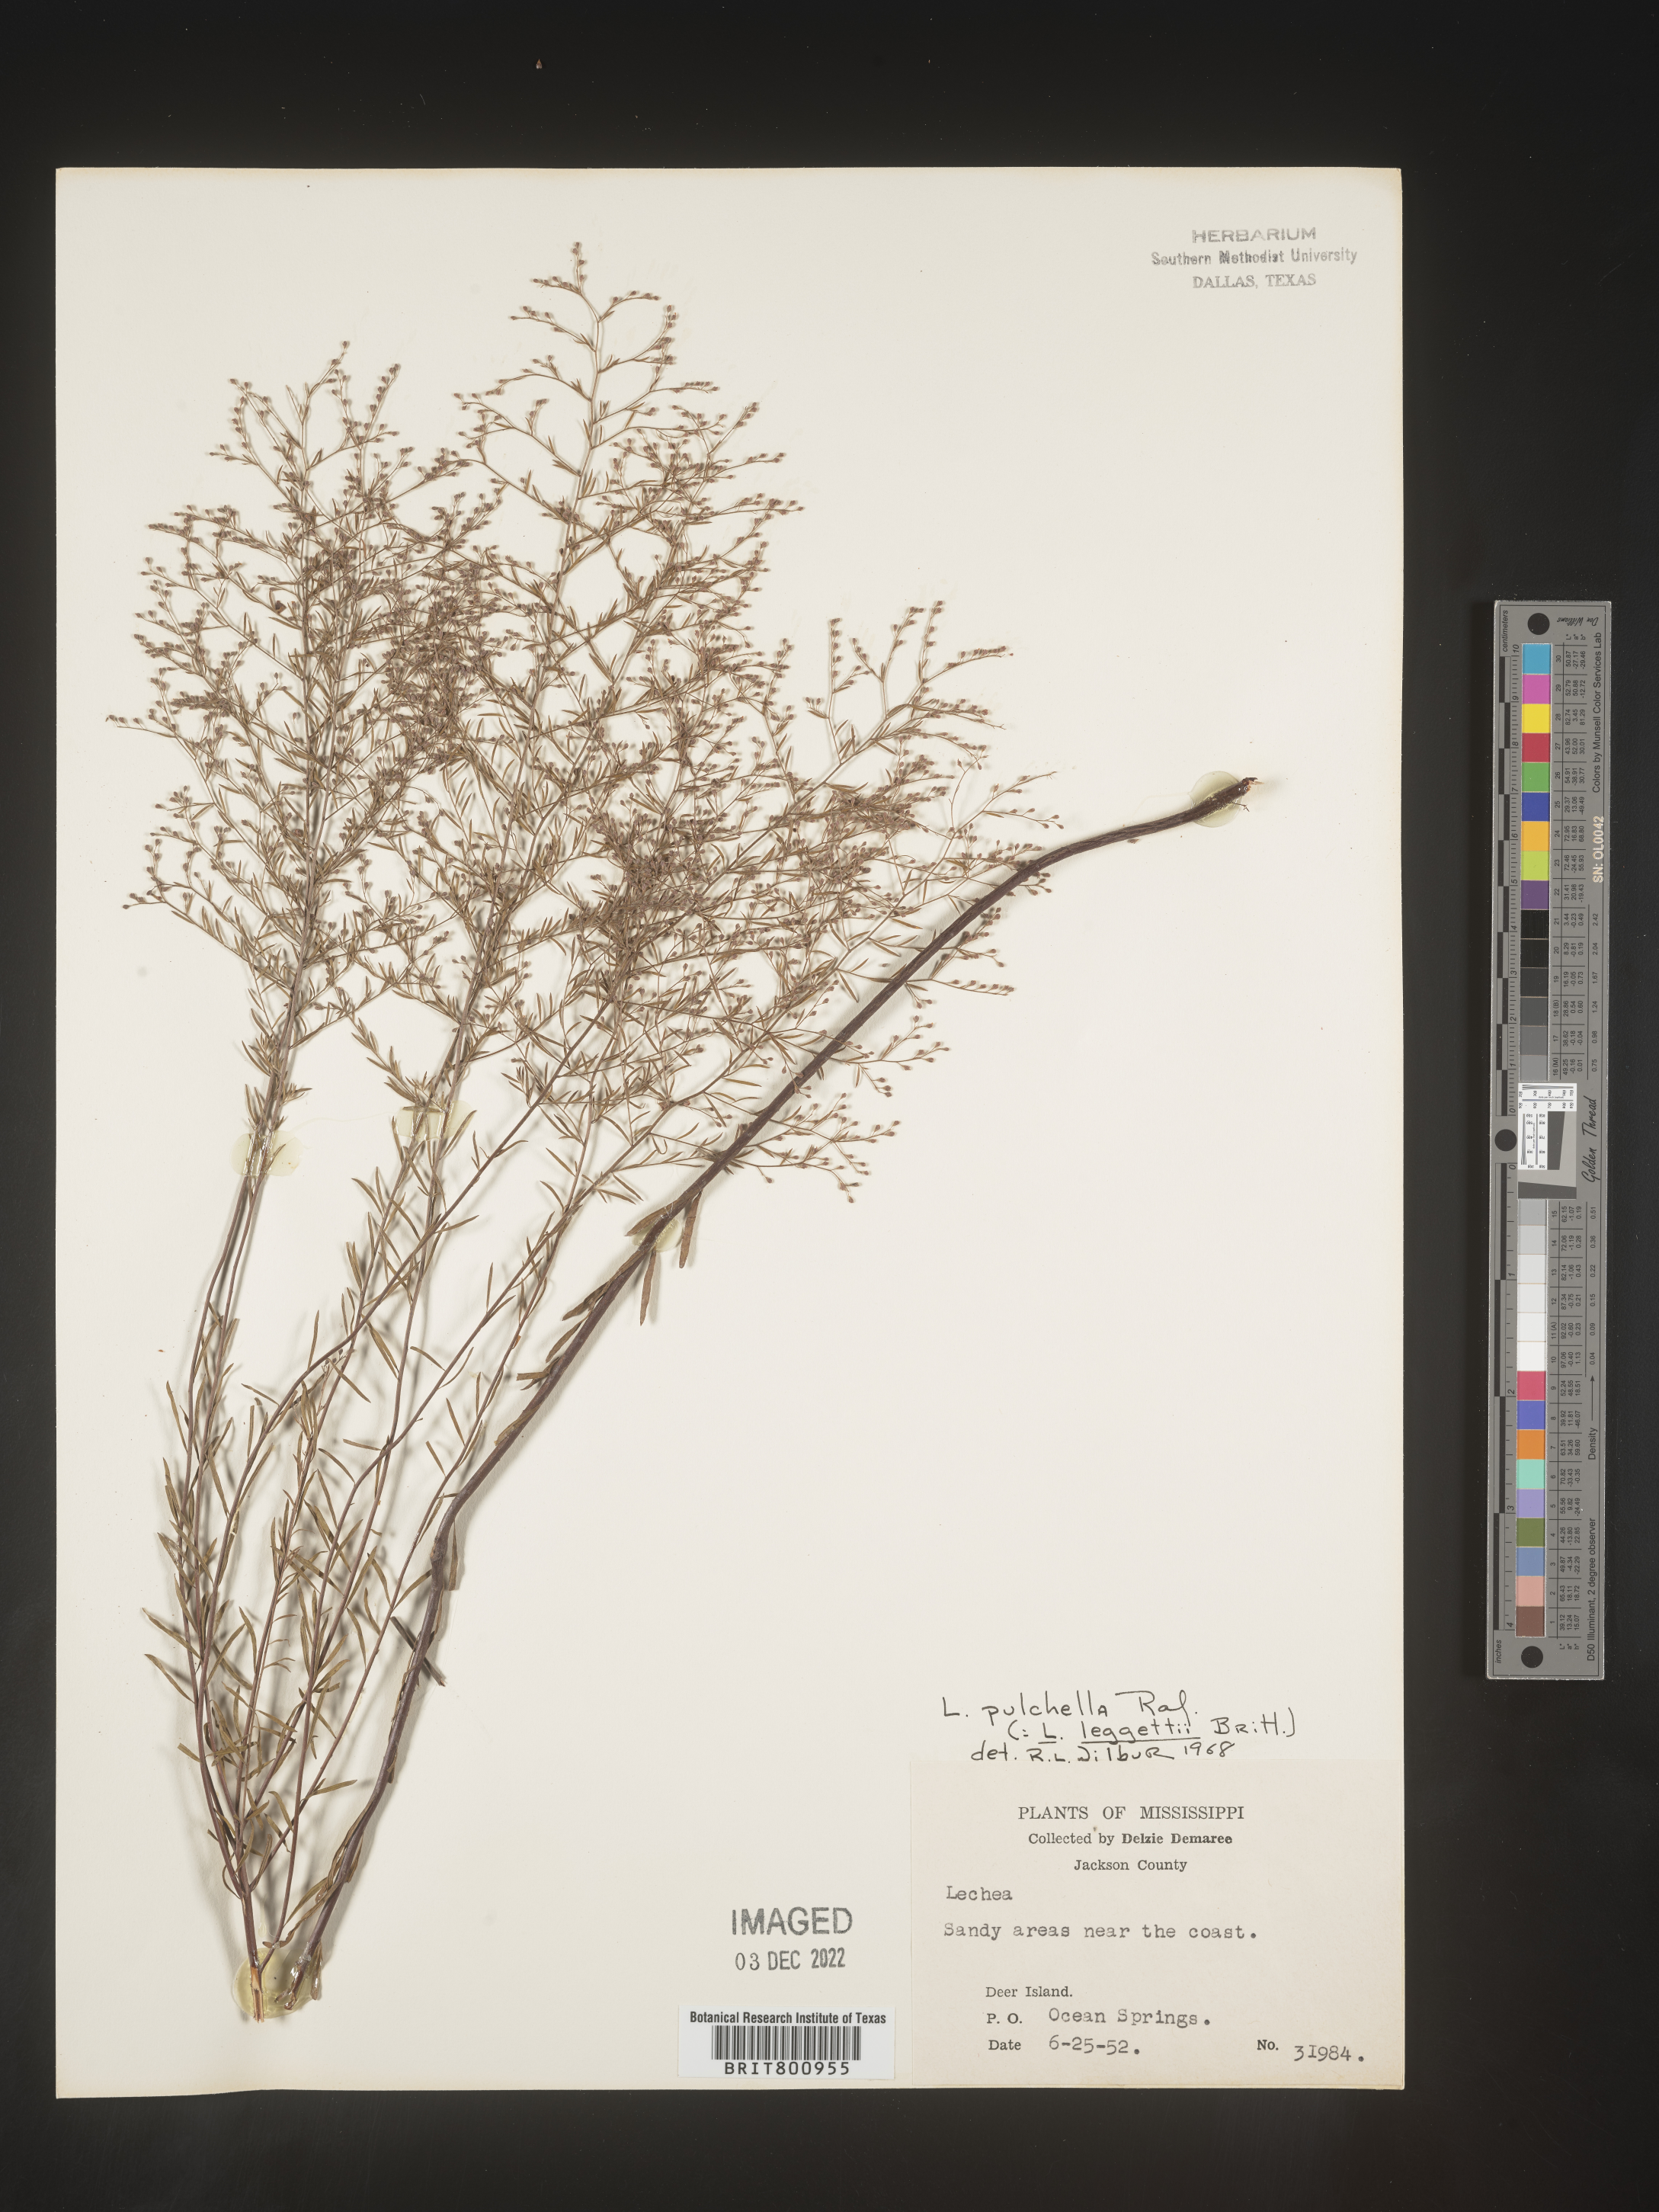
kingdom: Plantae
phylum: Tracheophyta
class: Magnoliopsida
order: Malvales
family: Cistaceae
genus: Lechea
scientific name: Lechea pulchella
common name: Leggett's pinweed
